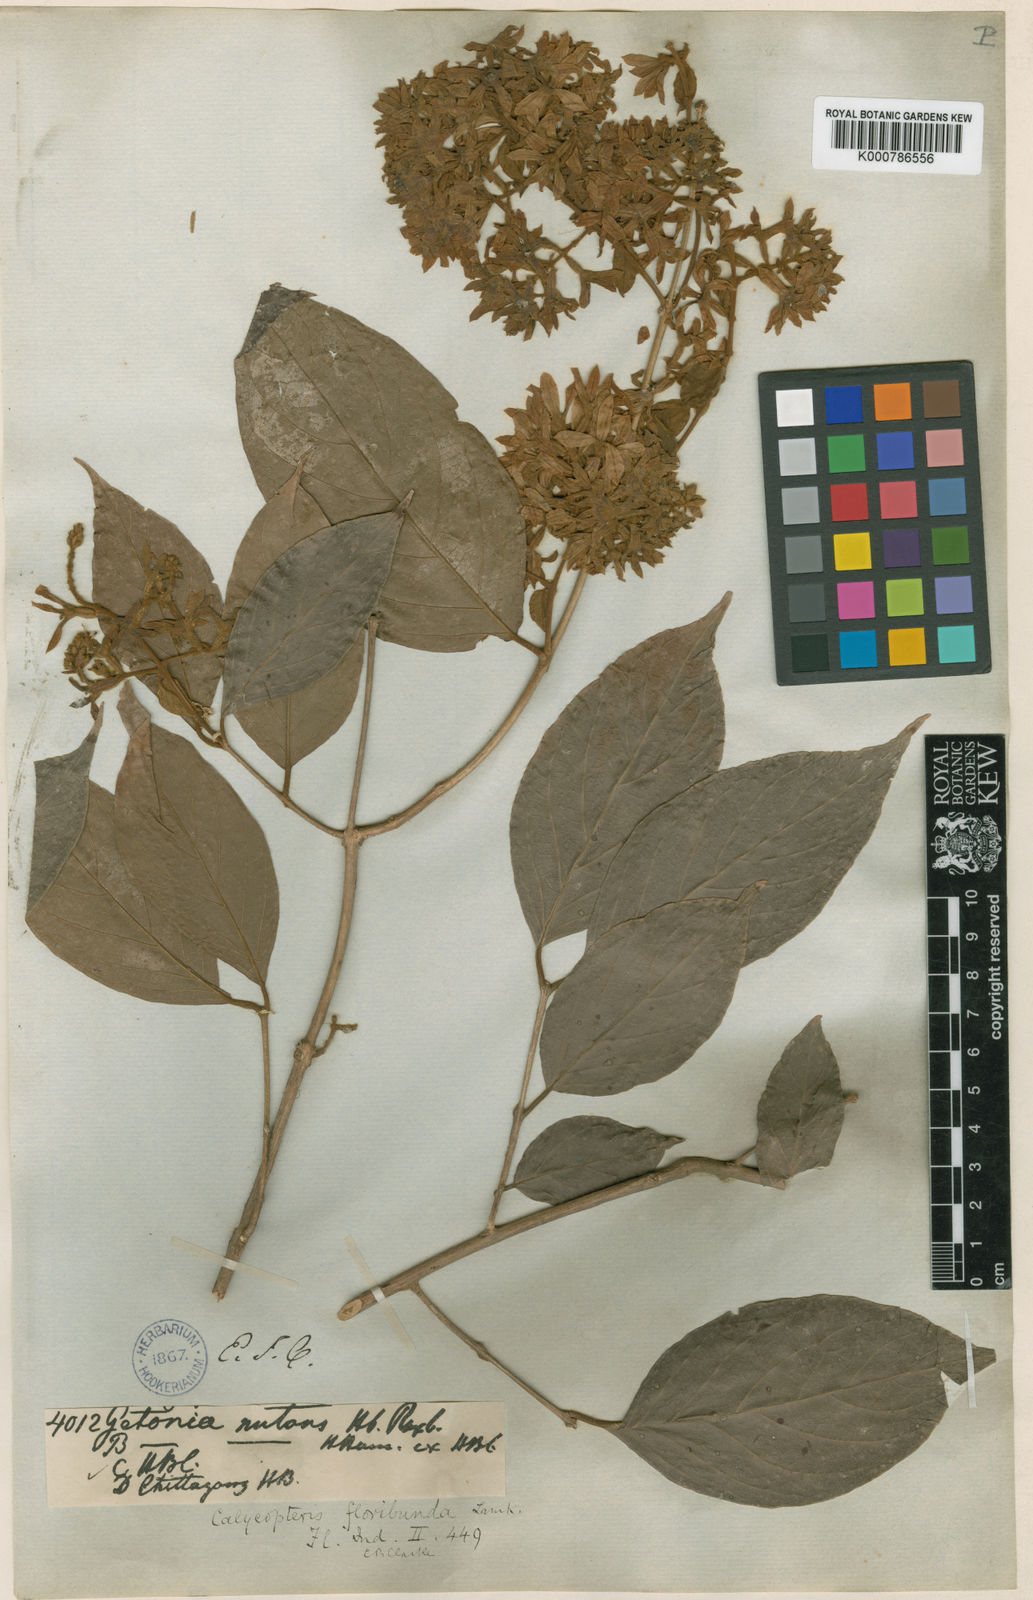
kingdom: Plantae
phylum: Tracheophyta
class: Magnoliopsida
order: Myrtales
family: Combretaceae
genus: Getonia
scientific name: Getonia floribunda
